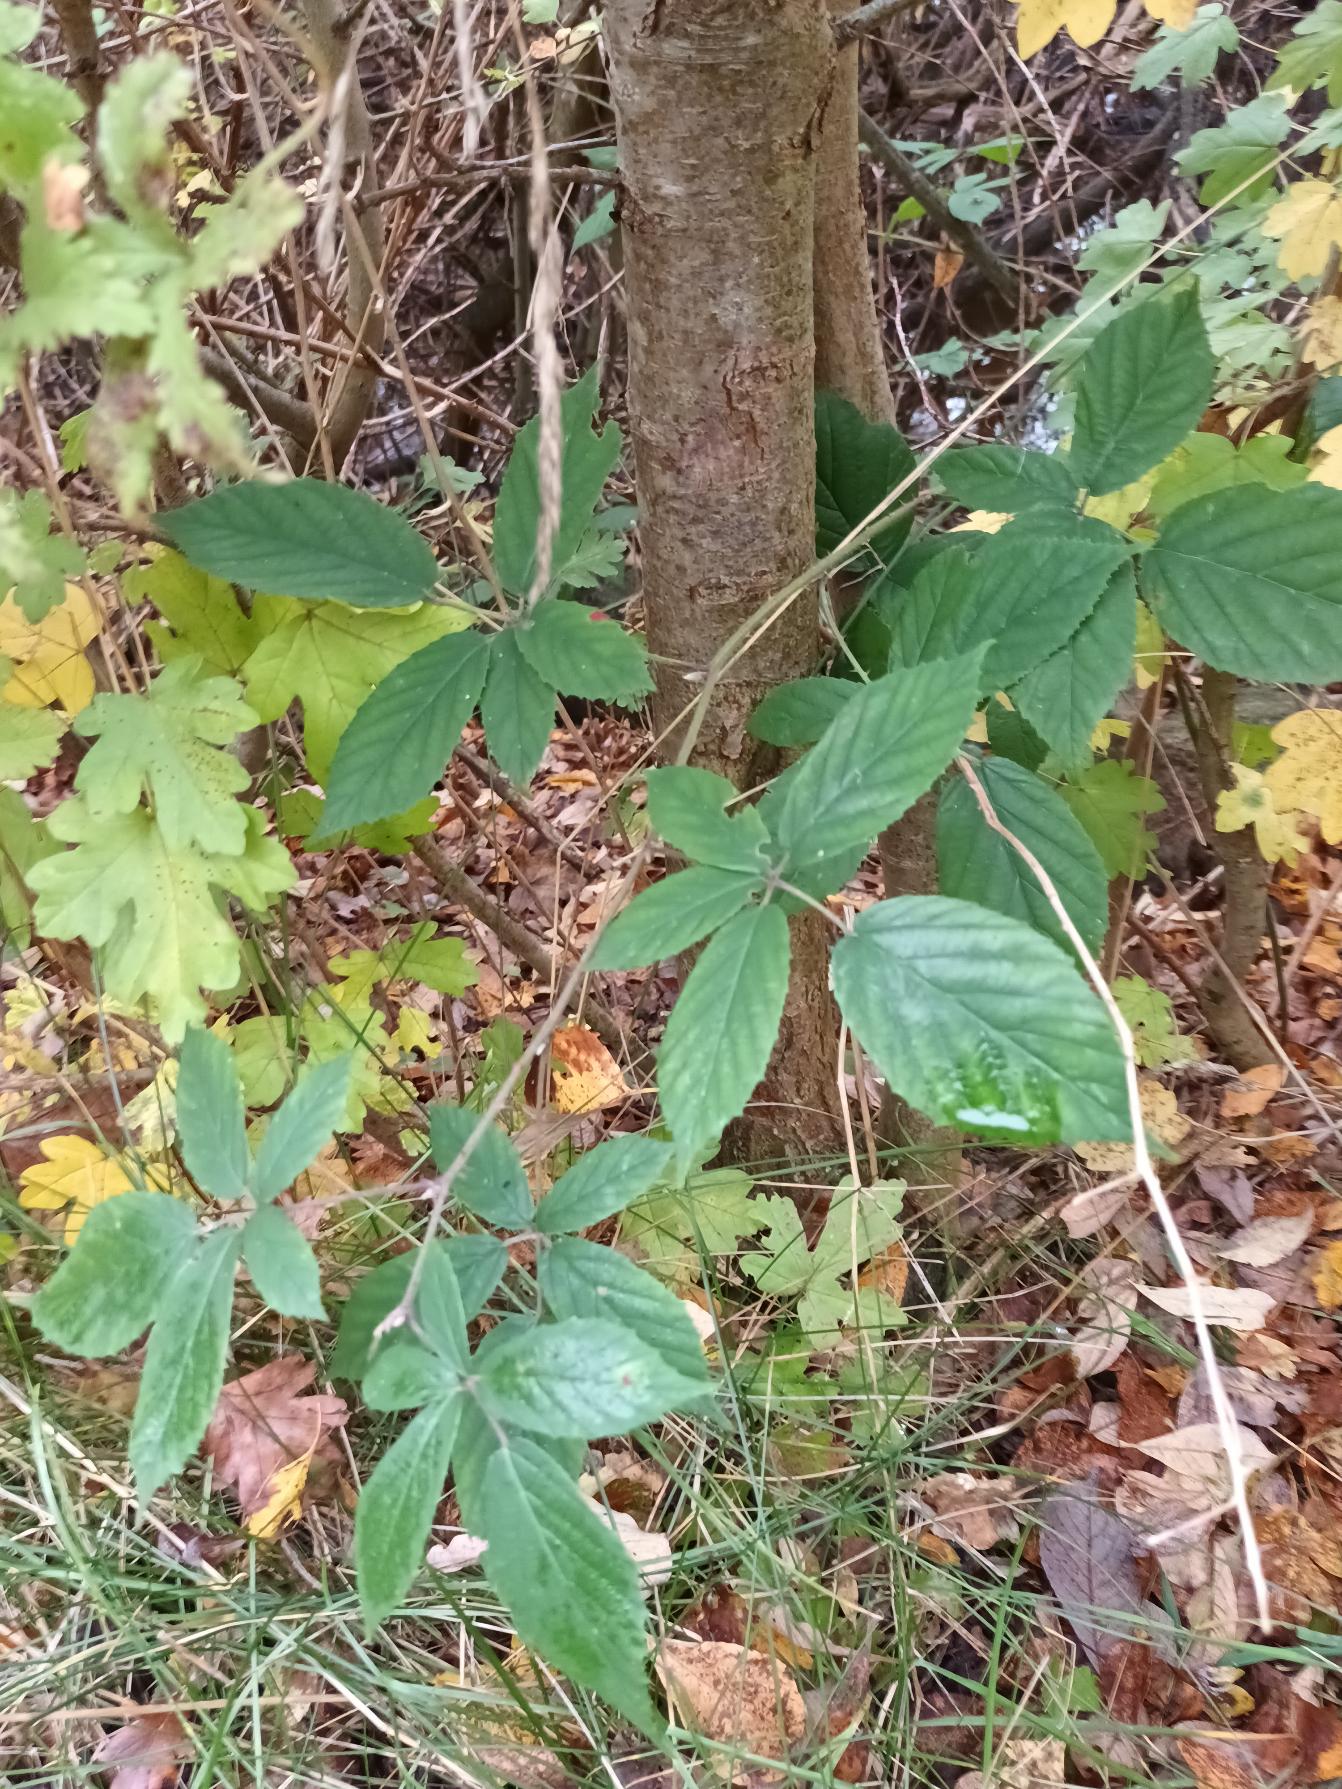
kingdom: Plantae
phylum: Tracheophyta
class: Magnoliopsida
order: Rosales
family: Rosaceae
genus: Rubus
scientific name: Rubus radula
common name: Rasperu brombær
